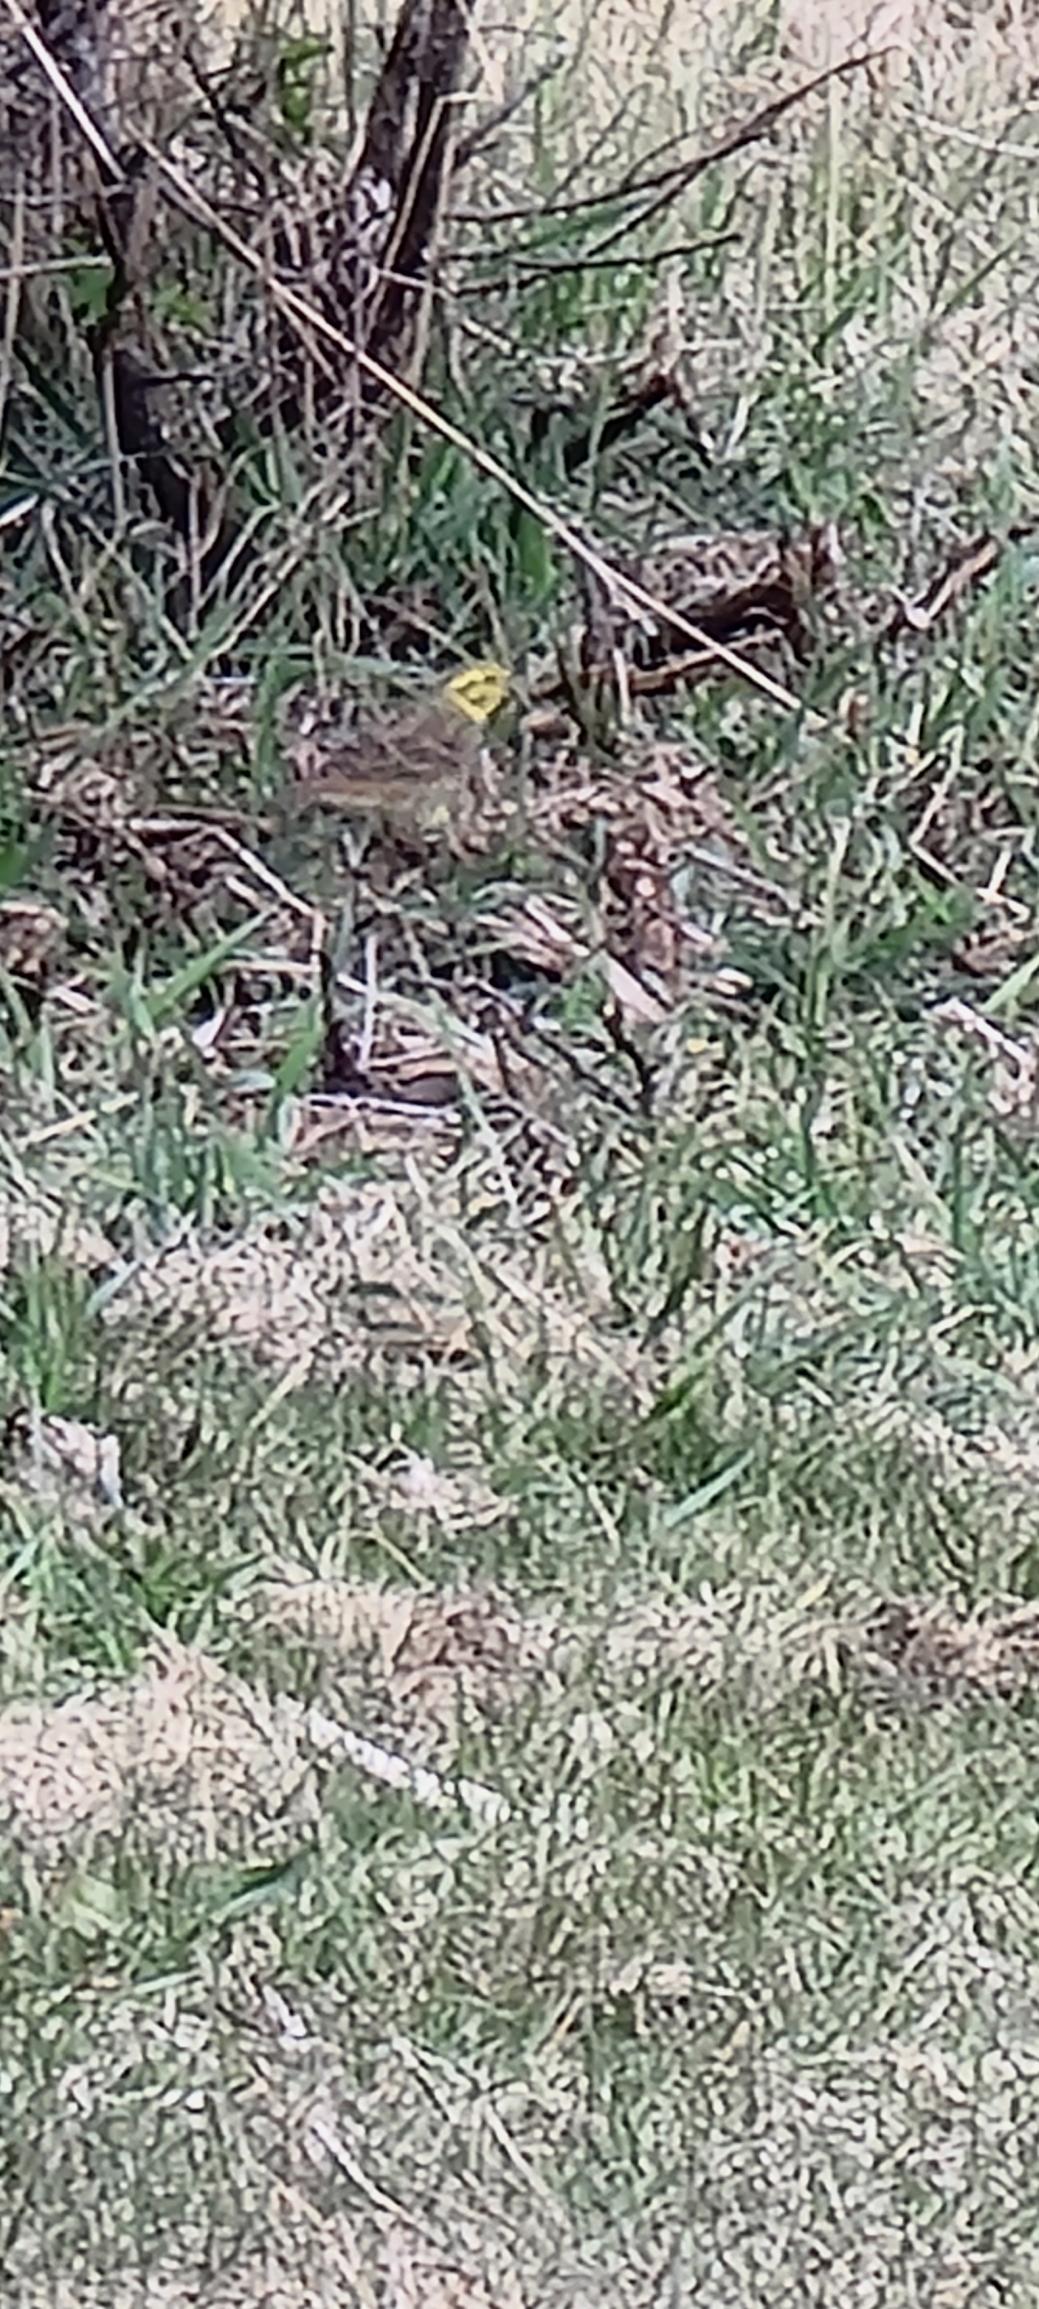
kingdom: Animalia
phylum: Chordata
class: Aves
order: Passeriformes
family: Emberizidae
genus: Emberiza
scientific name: Emberiza citrinella
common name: Gulspurv
